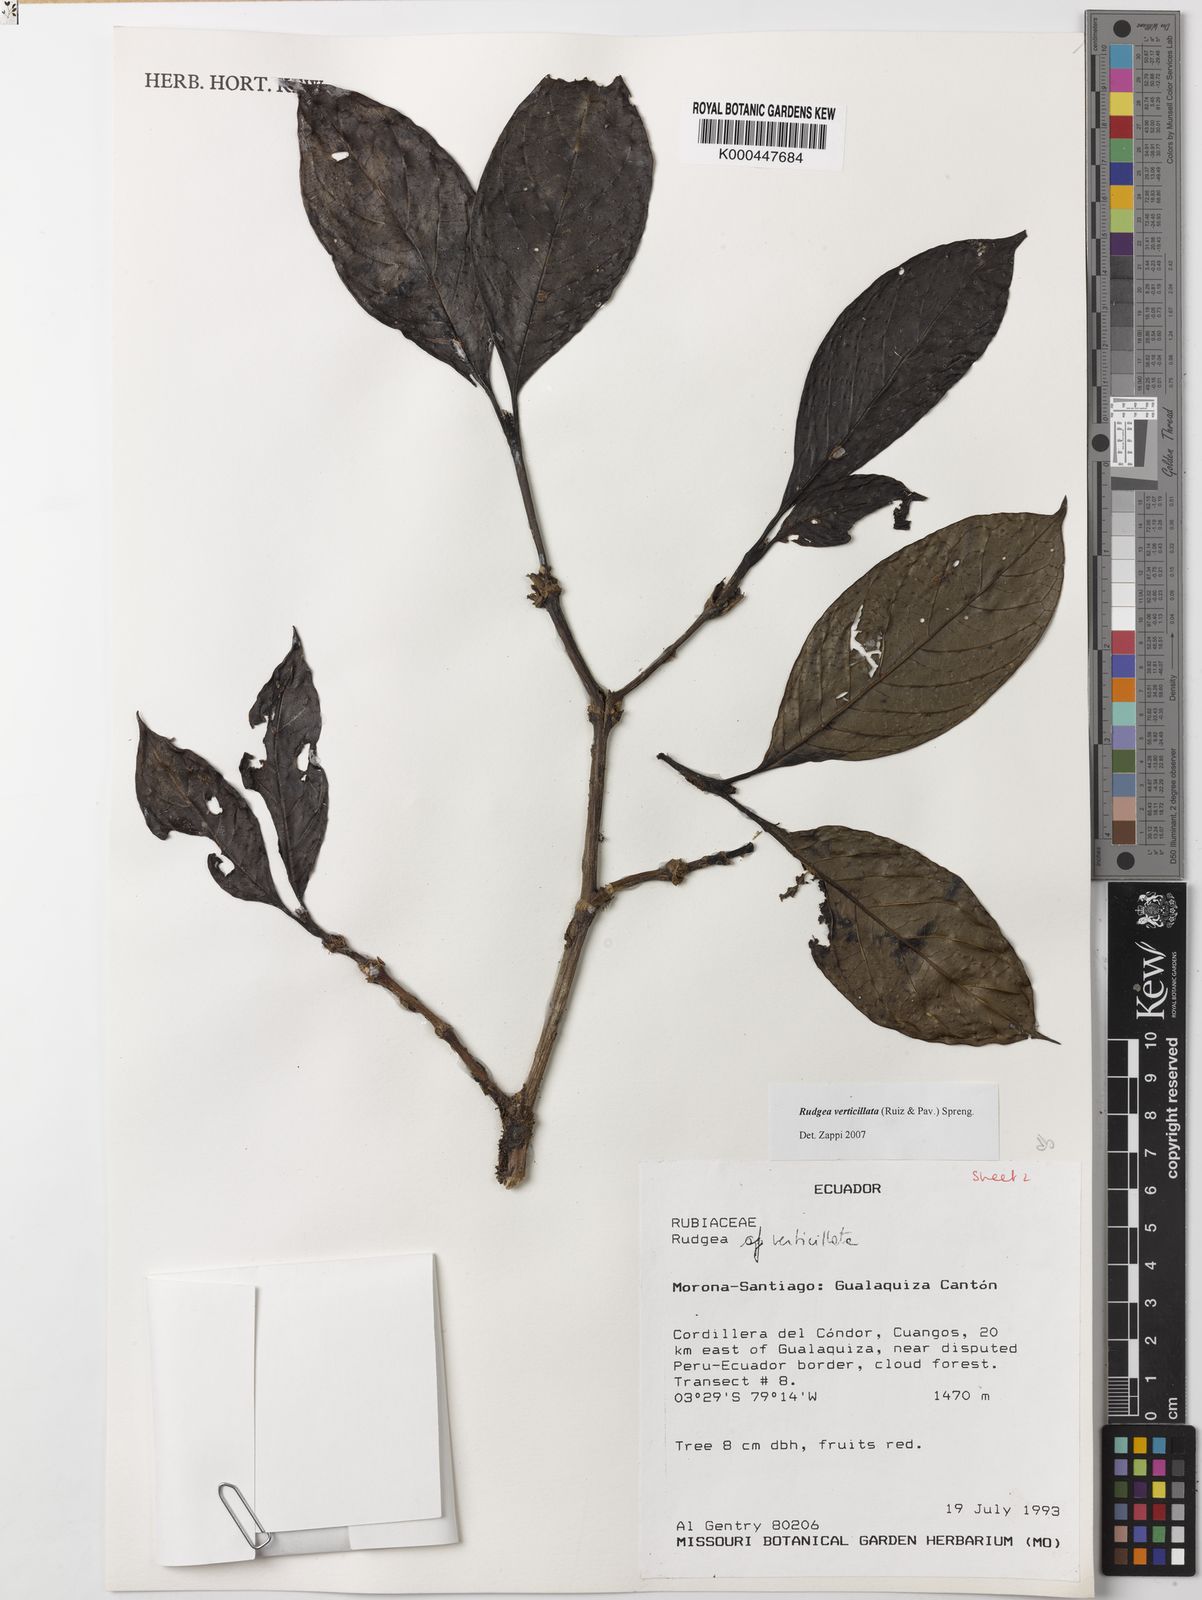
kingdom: Plantae
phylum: Tracheophyta
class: Magnoliopsida
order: Gentianales
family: Rubiaceae
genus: Rudgea
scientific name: Rudgea verticillata
